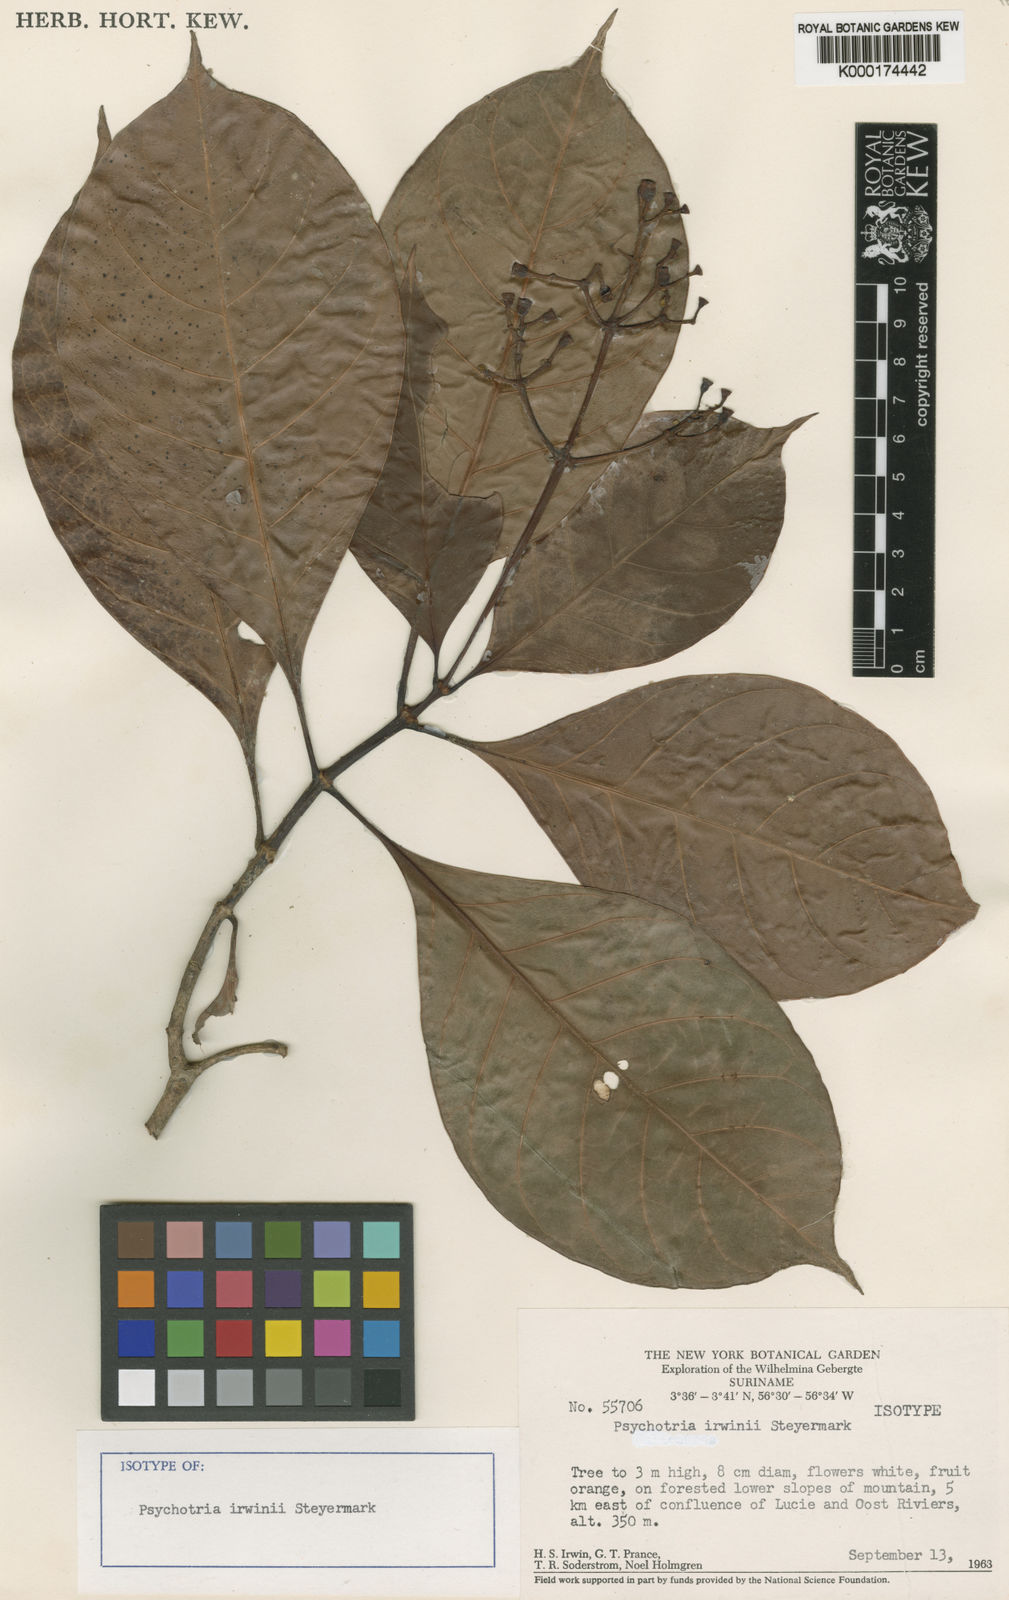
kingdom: Plantae
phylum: Tracheophyta
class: Magnoliopsida
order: Gentianales
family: Rubiaceae
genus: Psychotria
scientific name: Psychotria irwinii
